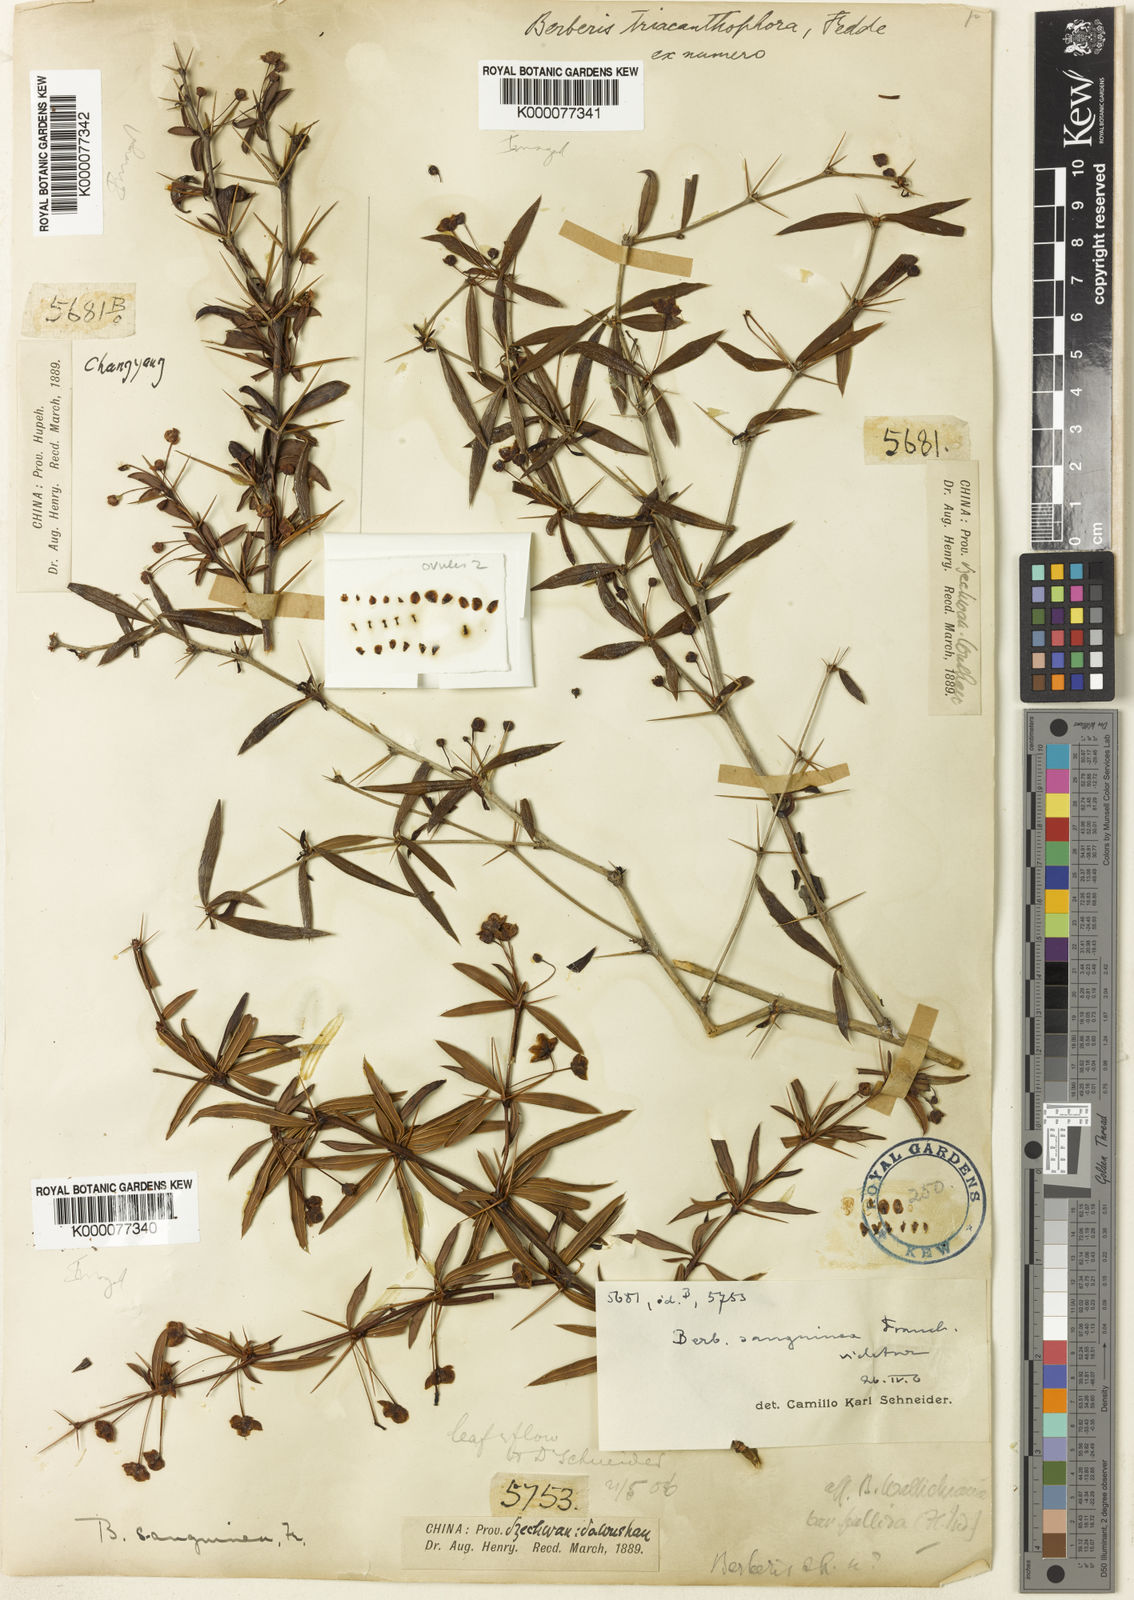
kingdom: Plantae
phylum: Tracheophyta
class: Magnoliopsida
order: Ranunculales
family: Berberidaceae
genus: Berberis
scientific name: Berberis triacanthophora
